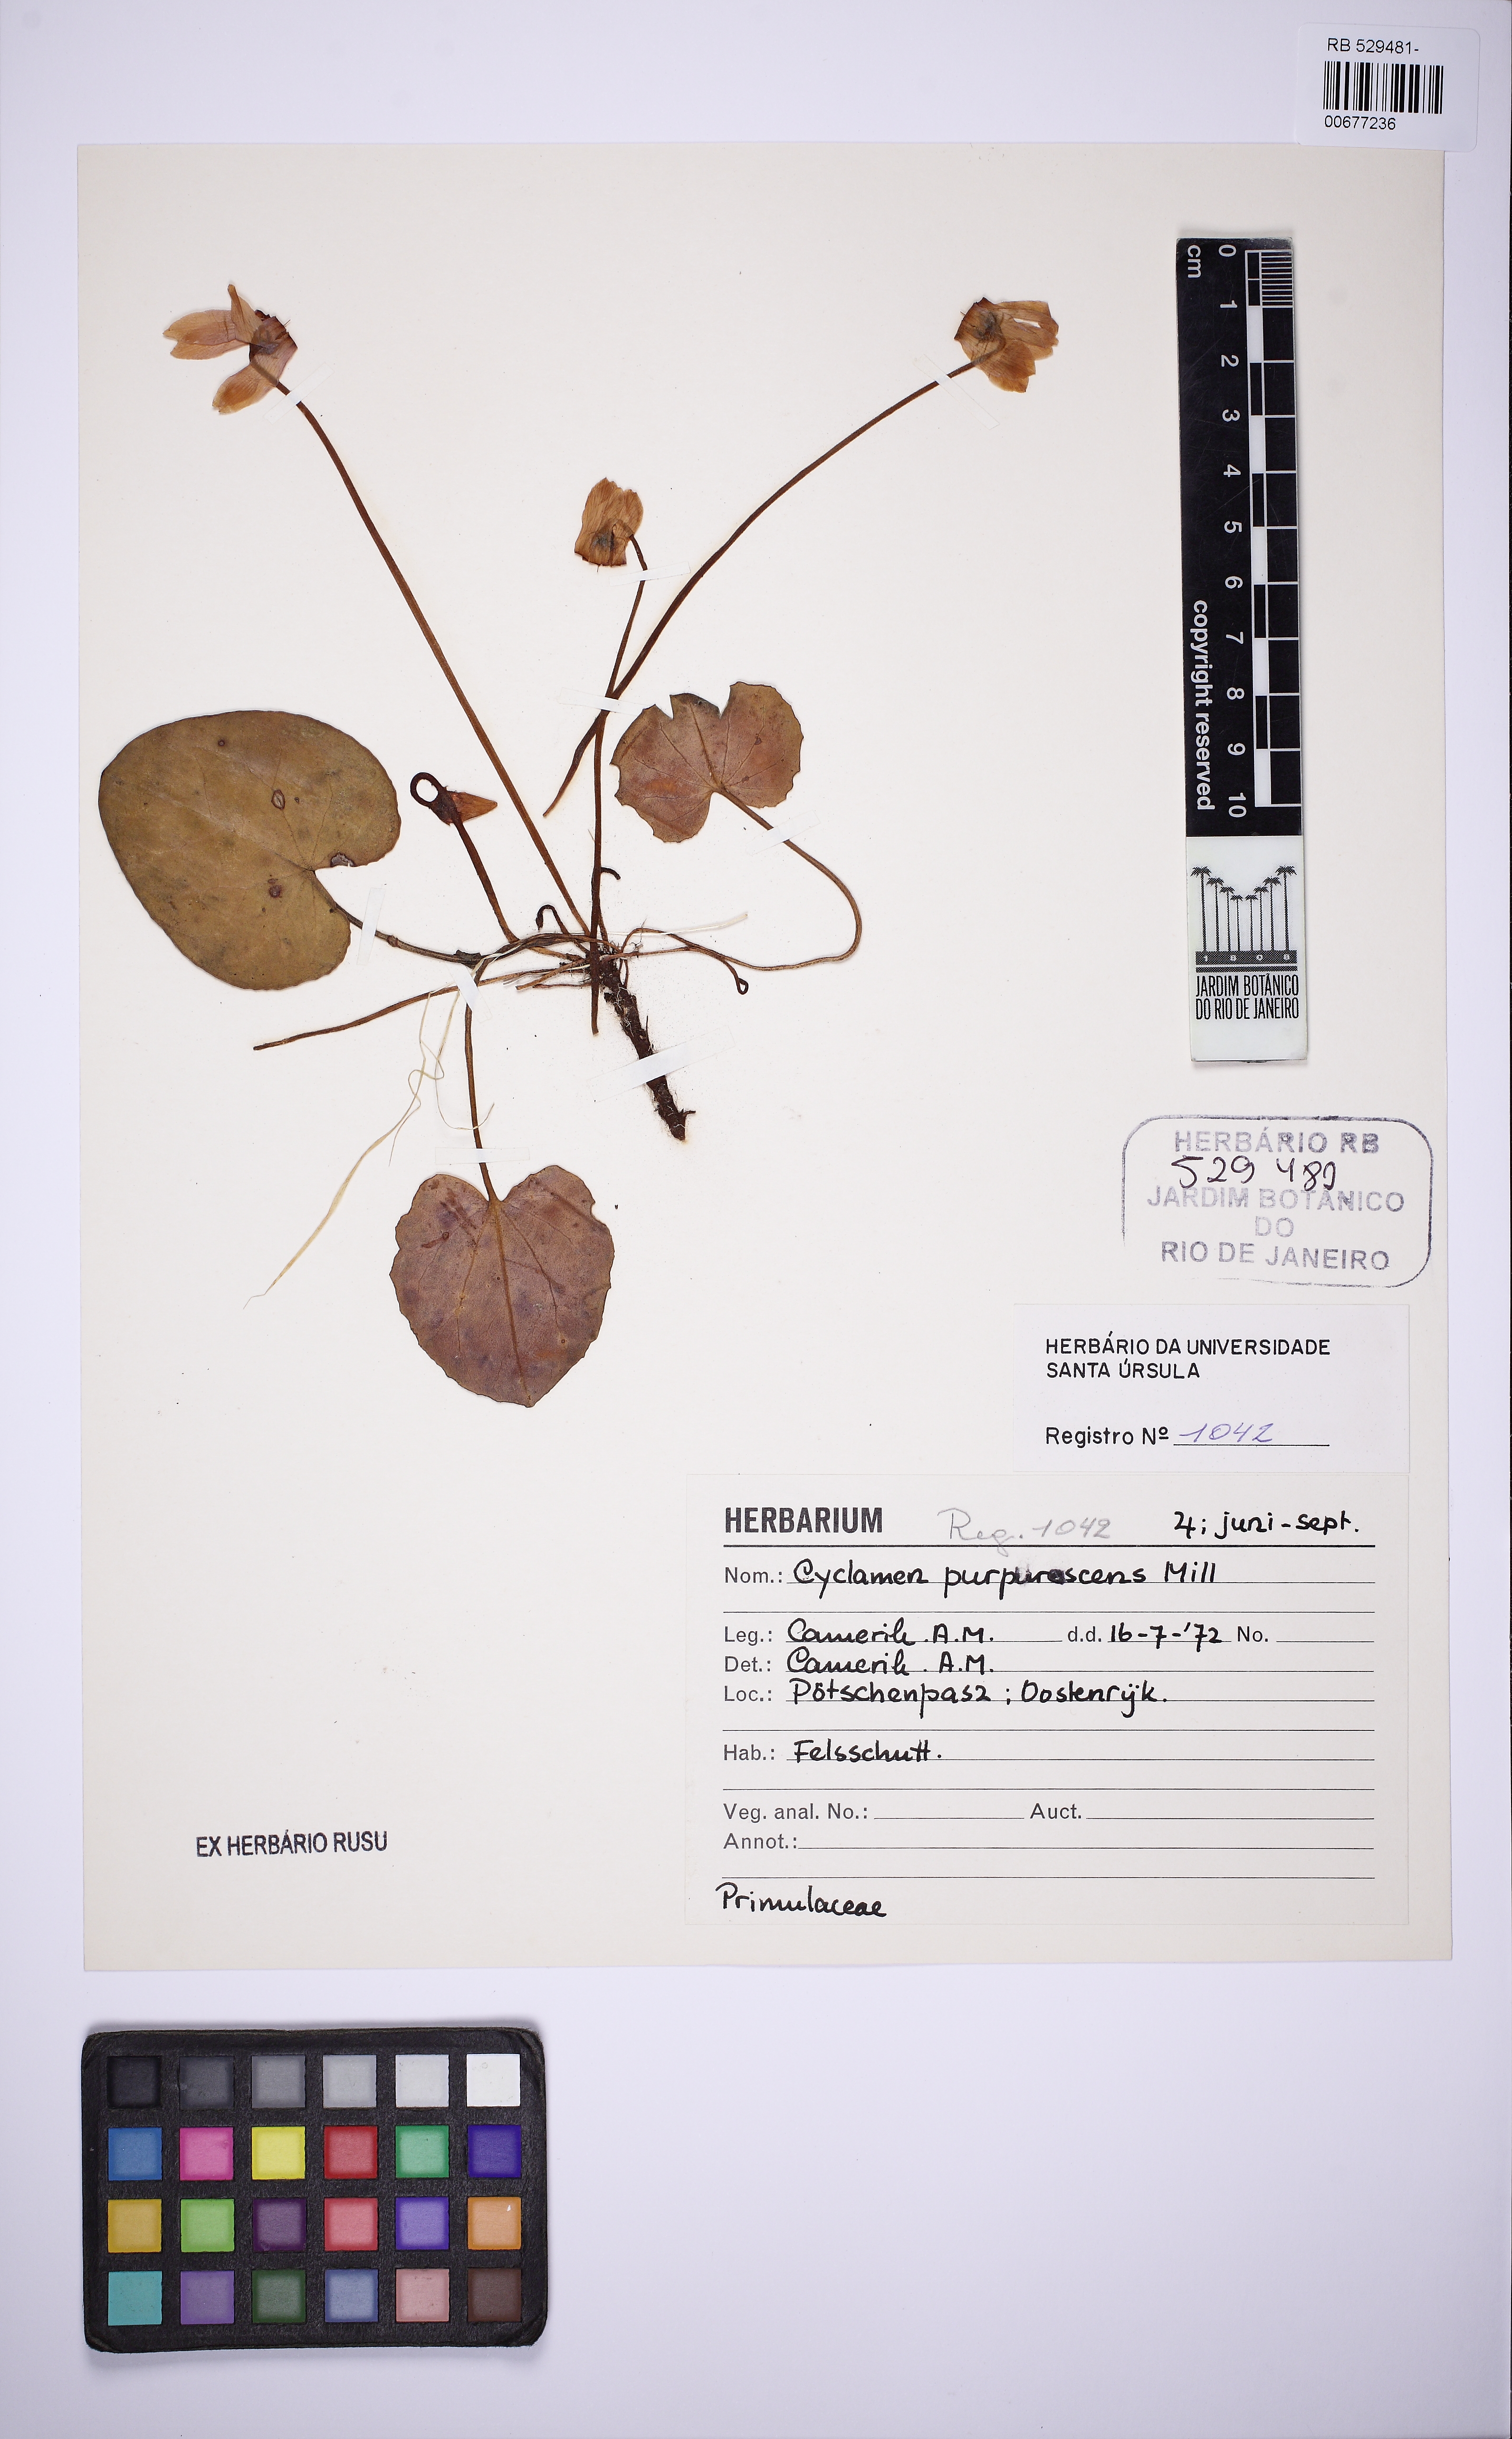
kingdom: Plantae
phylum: Tracheophyta
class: Magnoliopsida
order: Ericales
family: Primulaceae
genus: Cyclamen
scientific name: Cyclamen purpurascens
